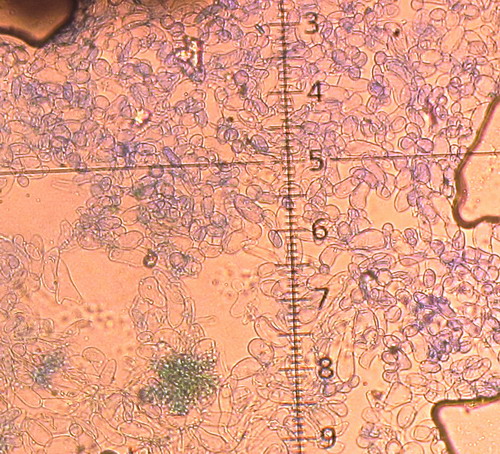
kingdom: Fungi
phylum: Basidiomycota
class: Agaricomycetes
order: Agaricales
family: Tubariaceae
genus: Flammulaster
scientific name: Flammulaster carpophilus
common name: bøge-grynskælhat
